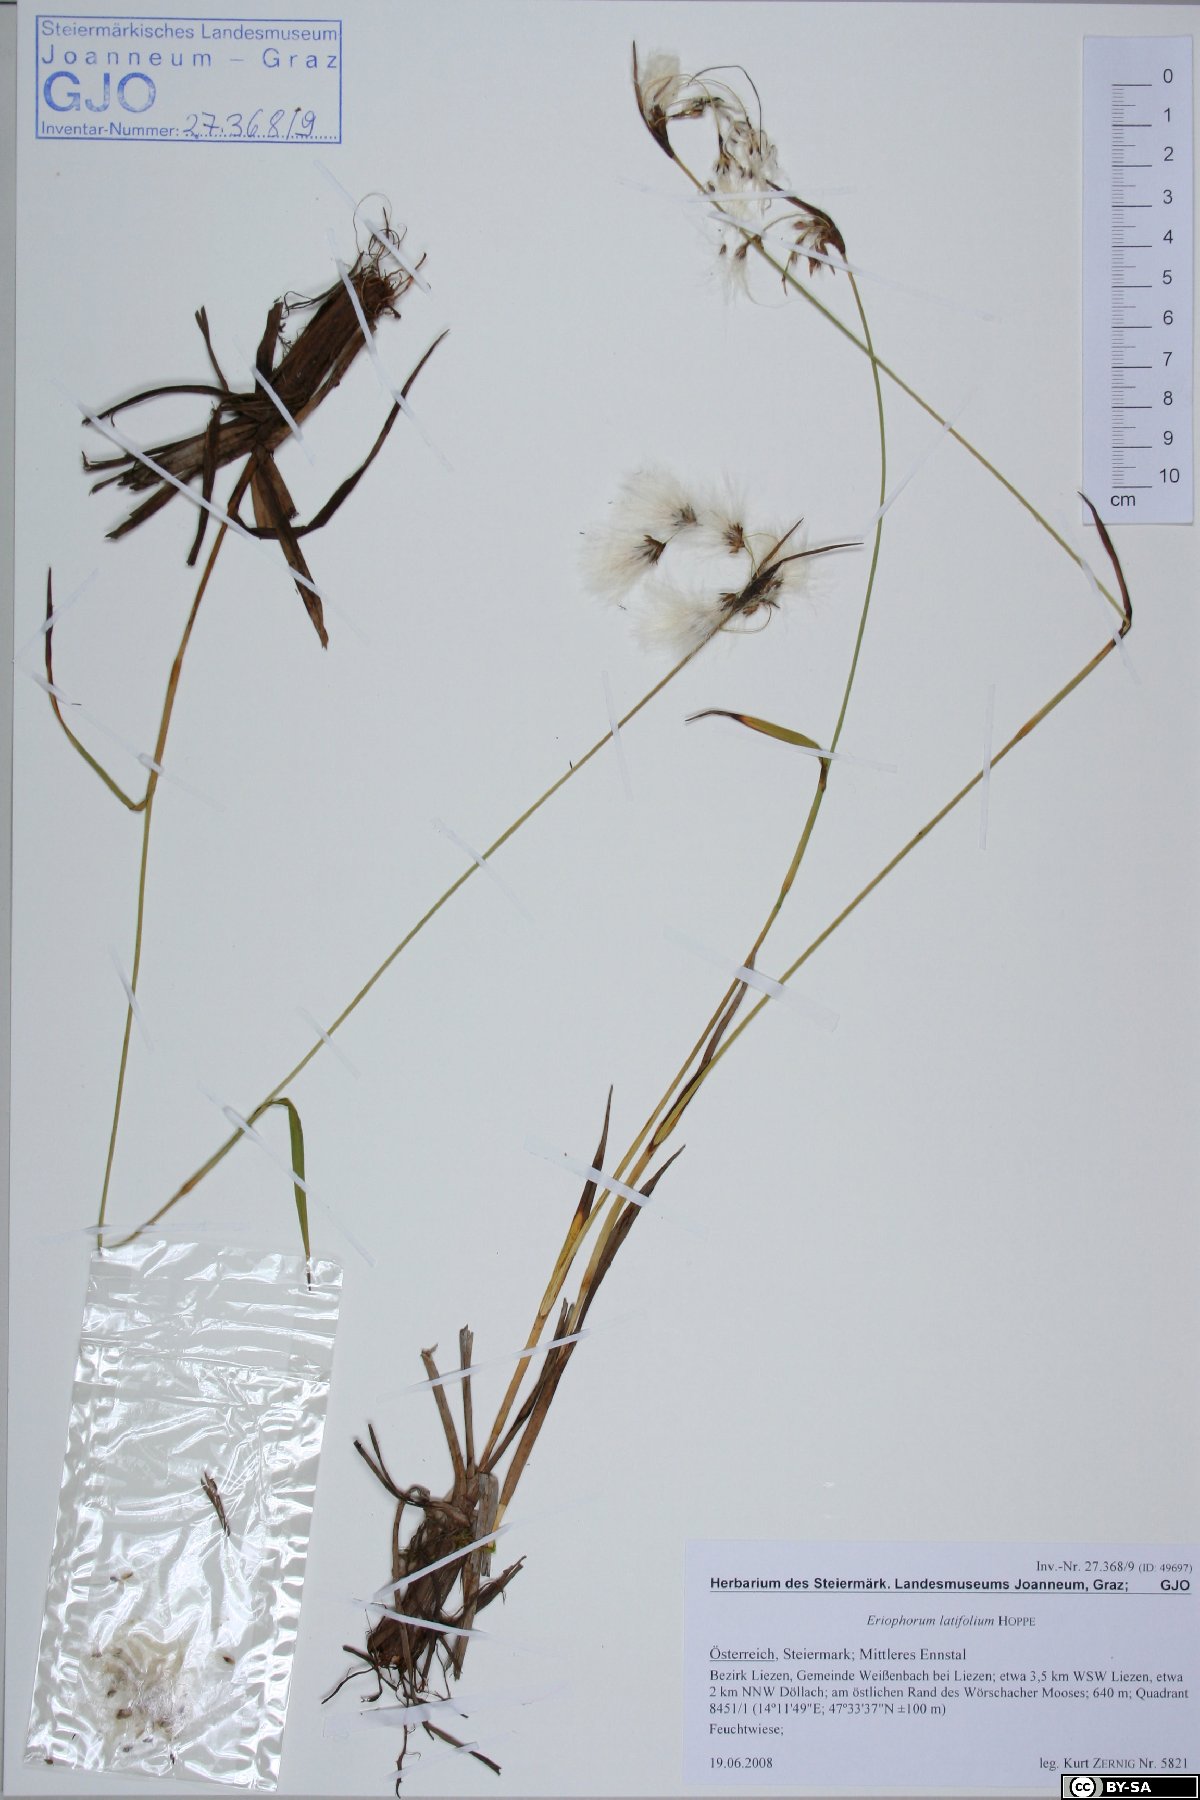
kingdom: Plantae
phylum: Tracheophyta
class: Liliopsida
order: Poales
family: Cyperaceae
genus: Eriophorum
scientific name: Eriophorum latifolium
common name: Broad-leaved cottongrass
